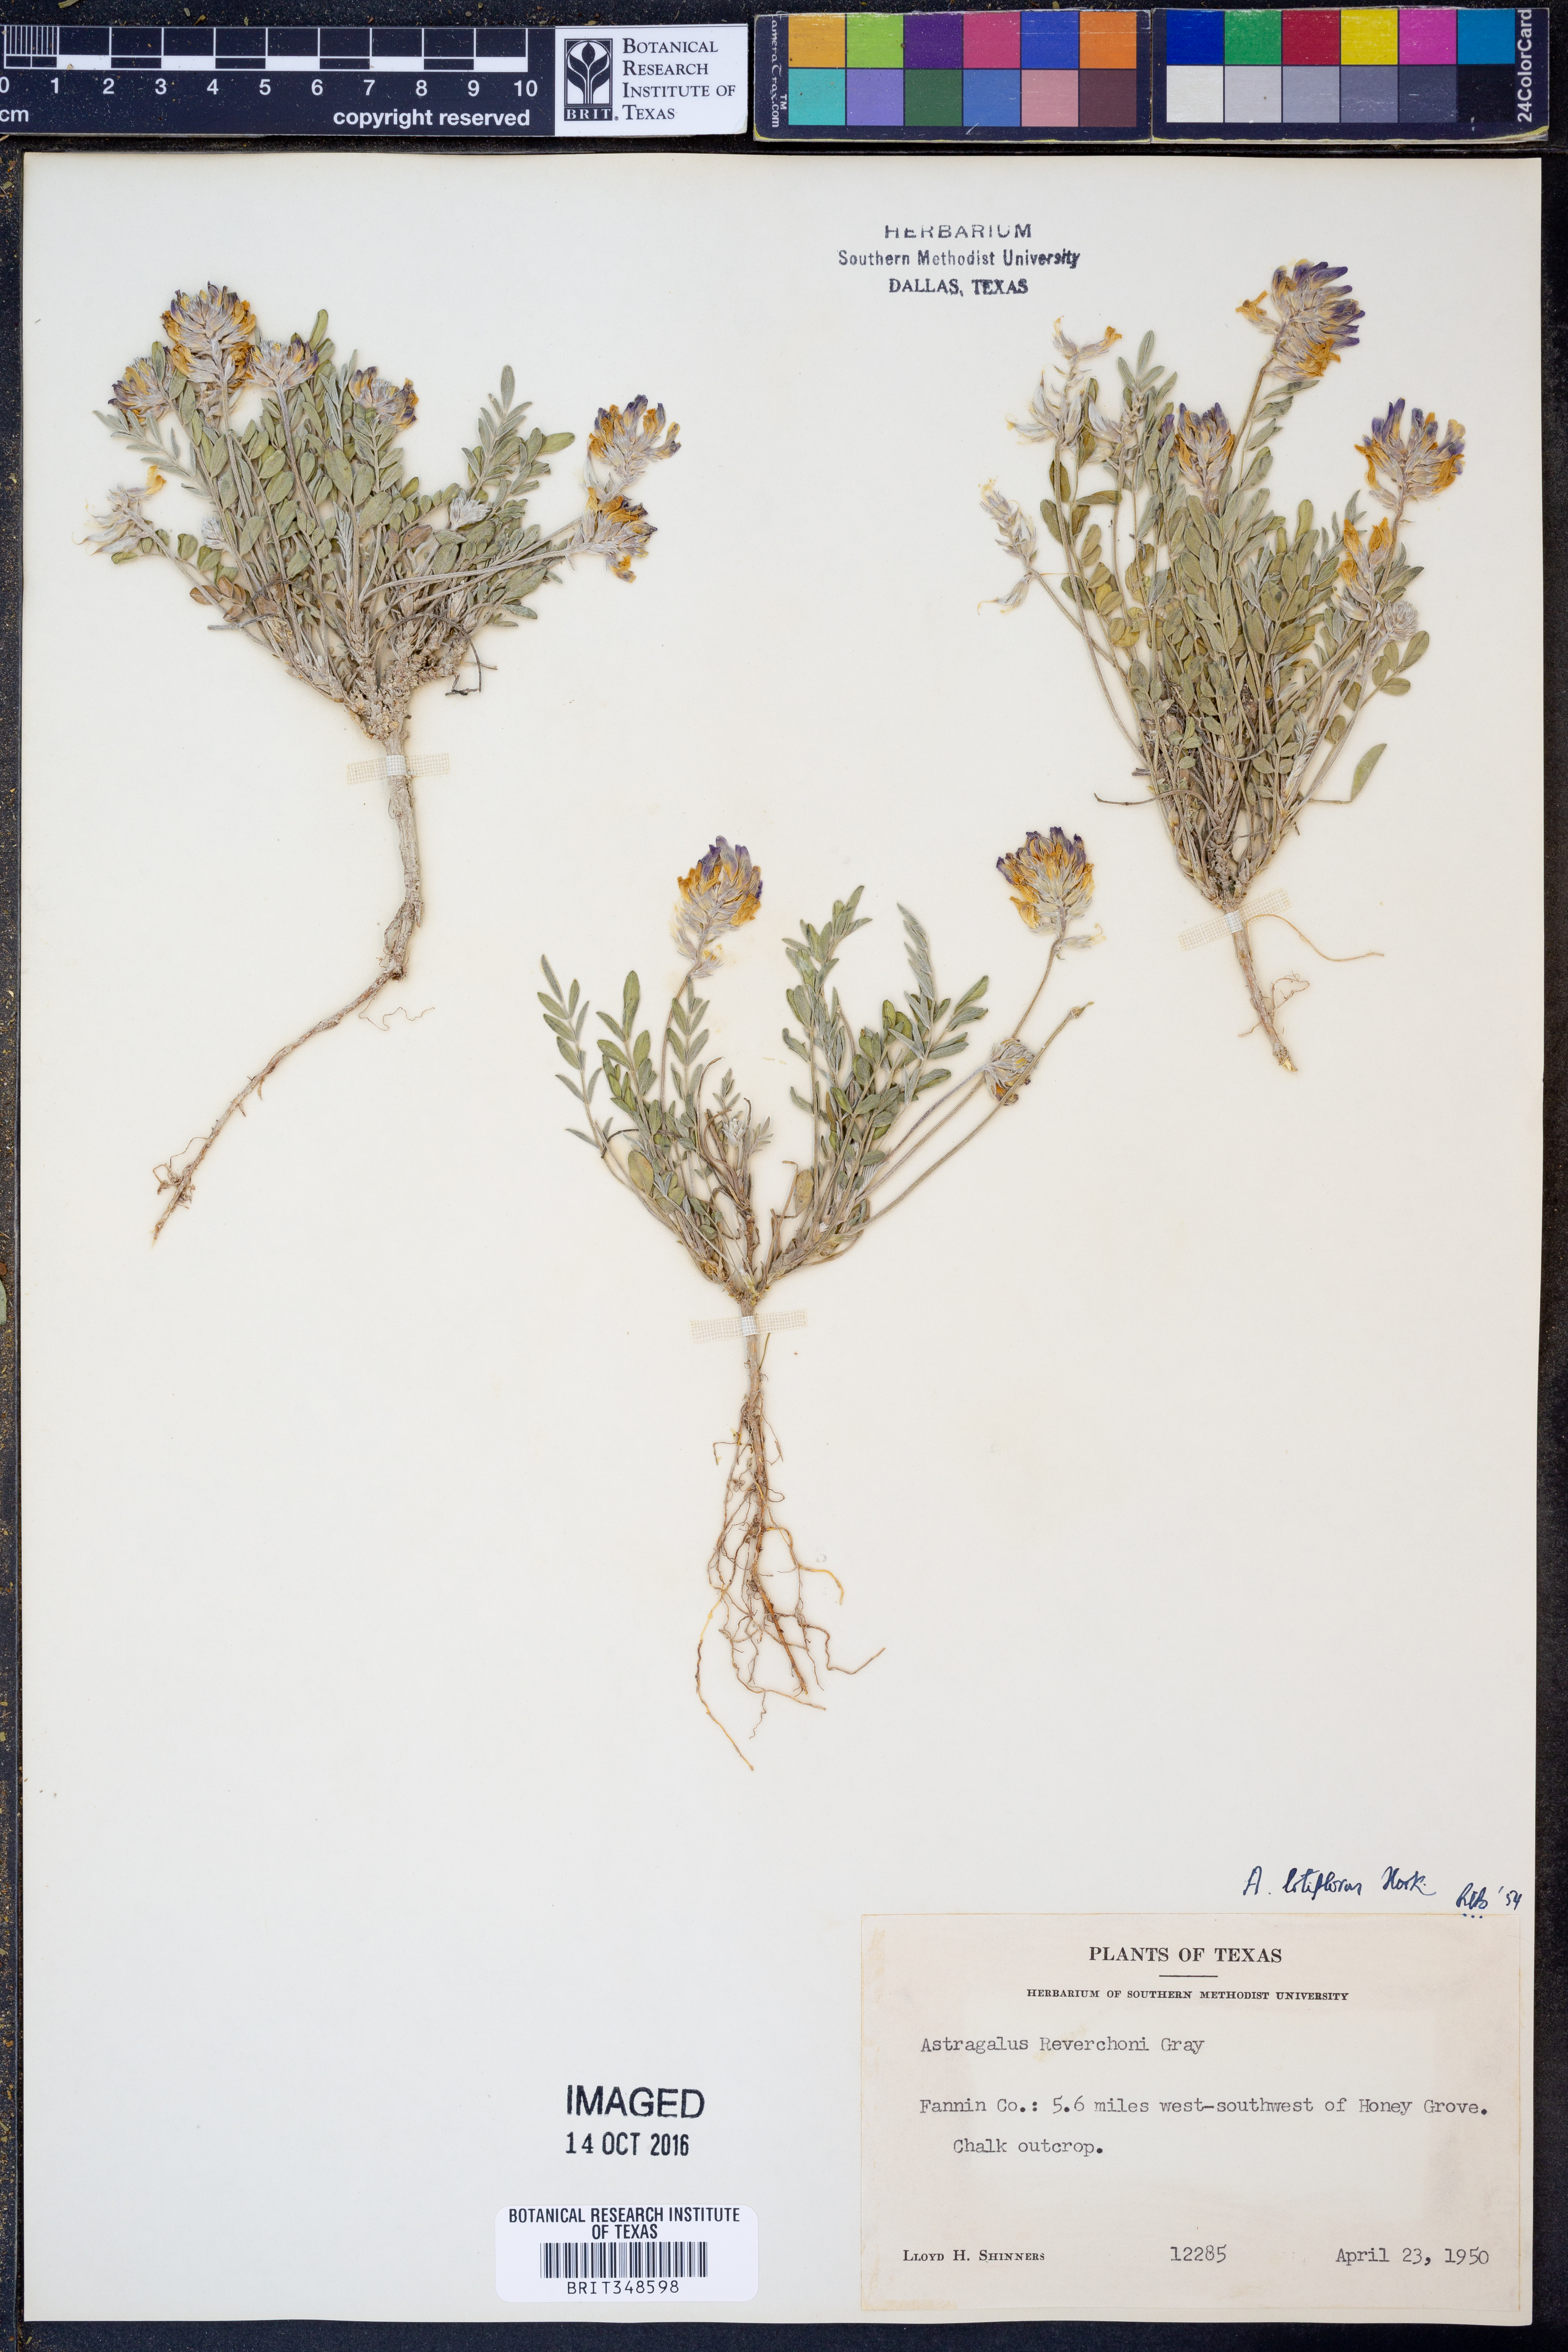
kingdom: Plantae
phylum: Tracheophyta
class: Magnoliopsida
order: Fabales
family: Fabaceae
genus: Astragalus
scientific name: Astragalus lotiflorus
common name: Lotus milk-vetch
